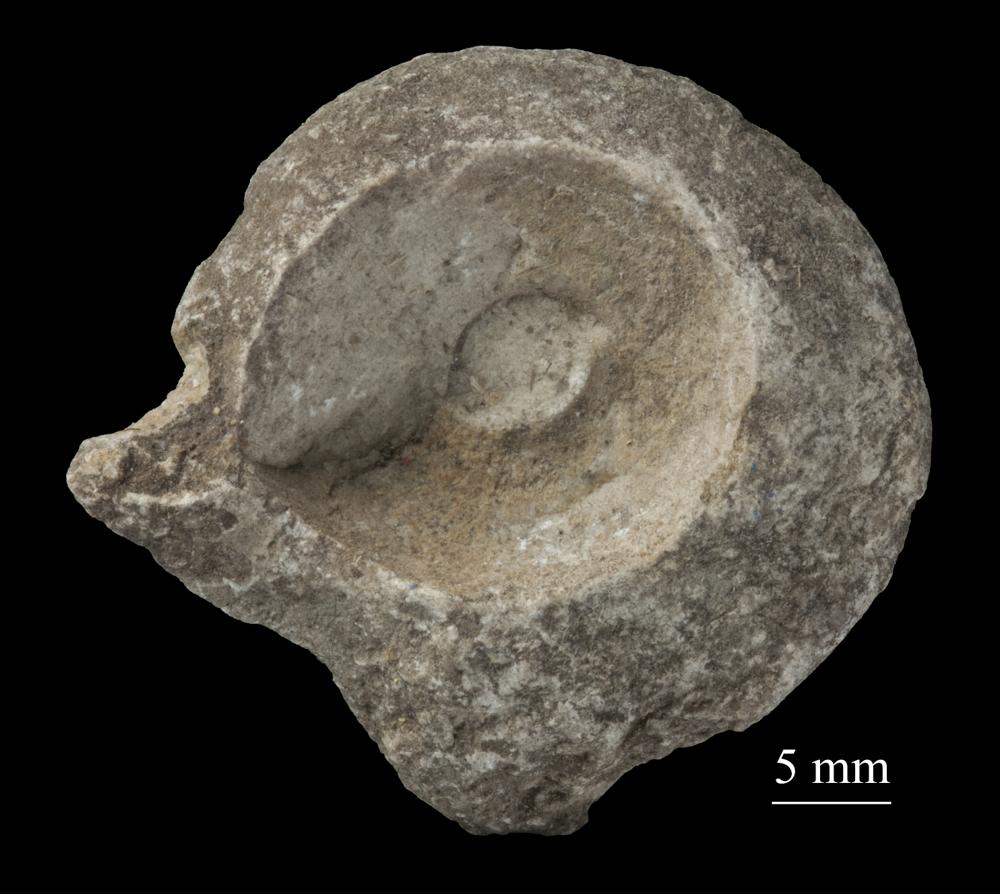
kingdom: Animalia
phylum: Mollusca
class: Gastropoda
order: Pleurotomariida
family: Pleurotomariidae
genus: Pleurotomaria
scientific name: Pleurotomaria
